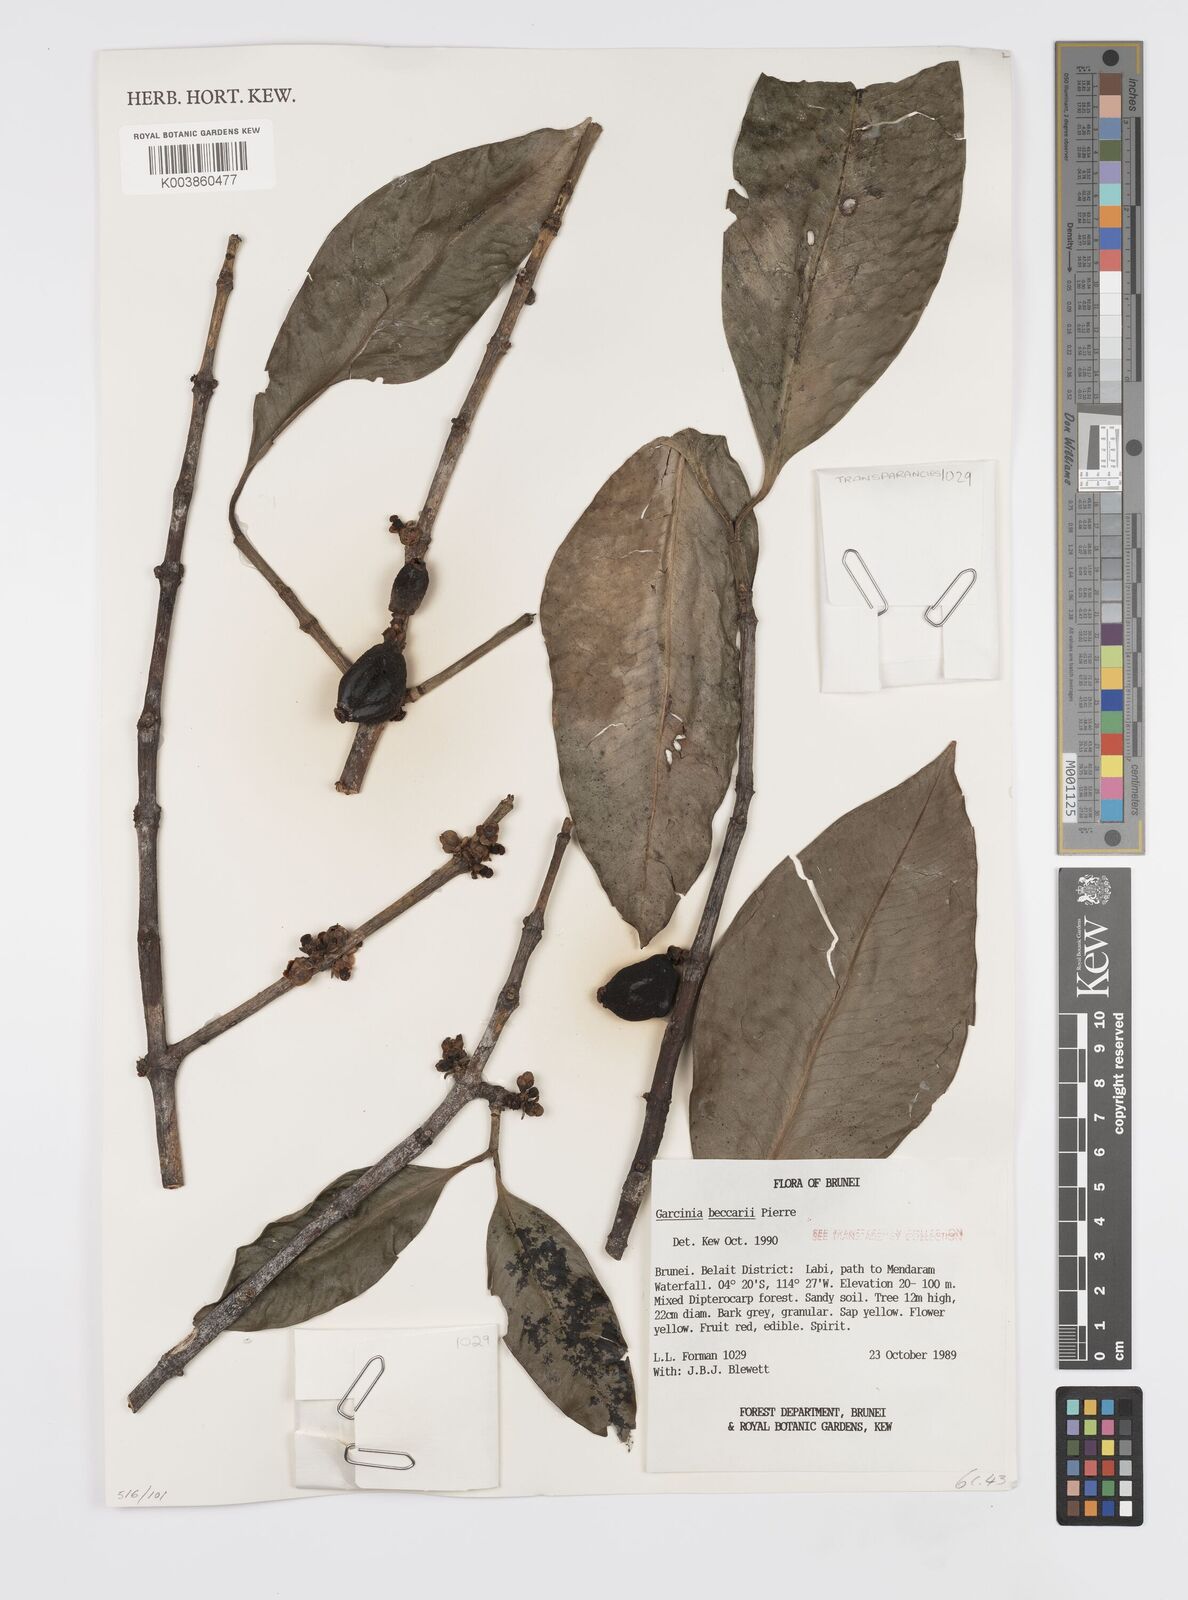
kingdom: Plantae
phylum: Tracheophyta
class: Magnoliopsida
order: Malpighiales
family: Clusiaceae
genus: Garcinia
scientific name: Garcinia beccarii
